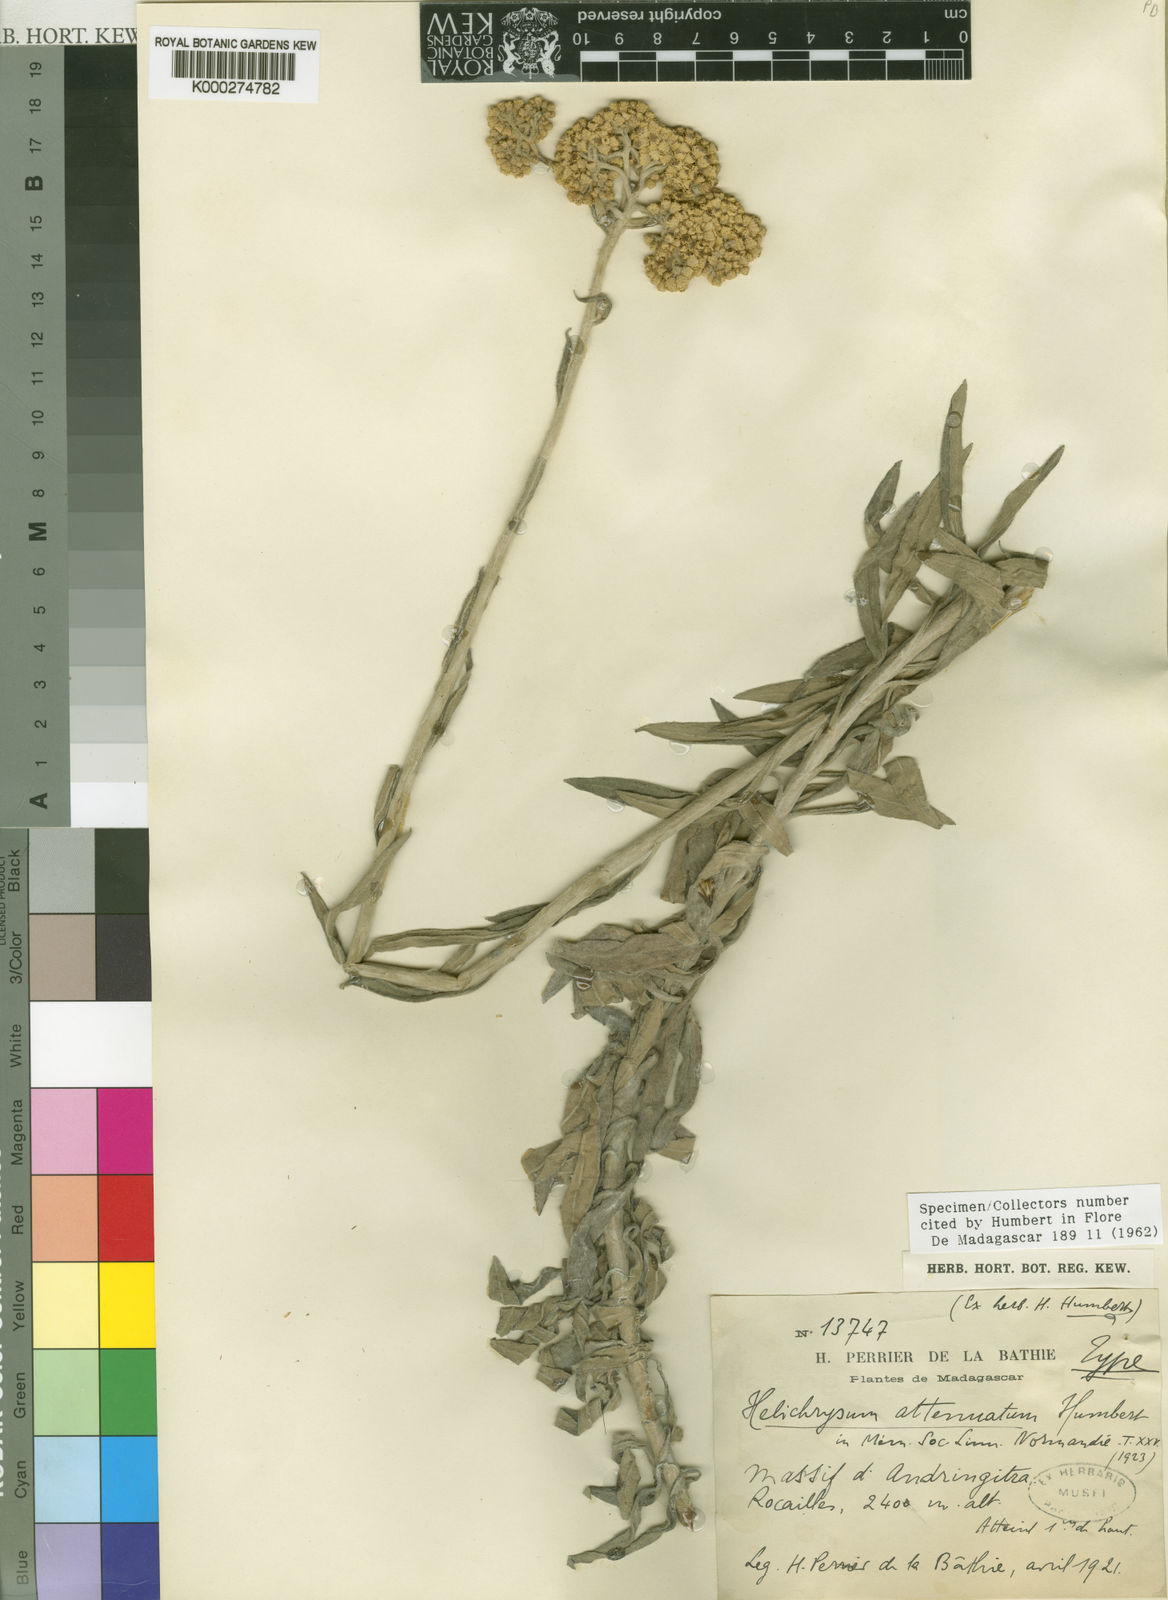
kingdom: Plantae
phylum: Tracheophyta
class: Magnoliopsida
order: Asterales
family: Asteraceae
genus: Helichrysum
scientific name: Helichrysum attenuatum
